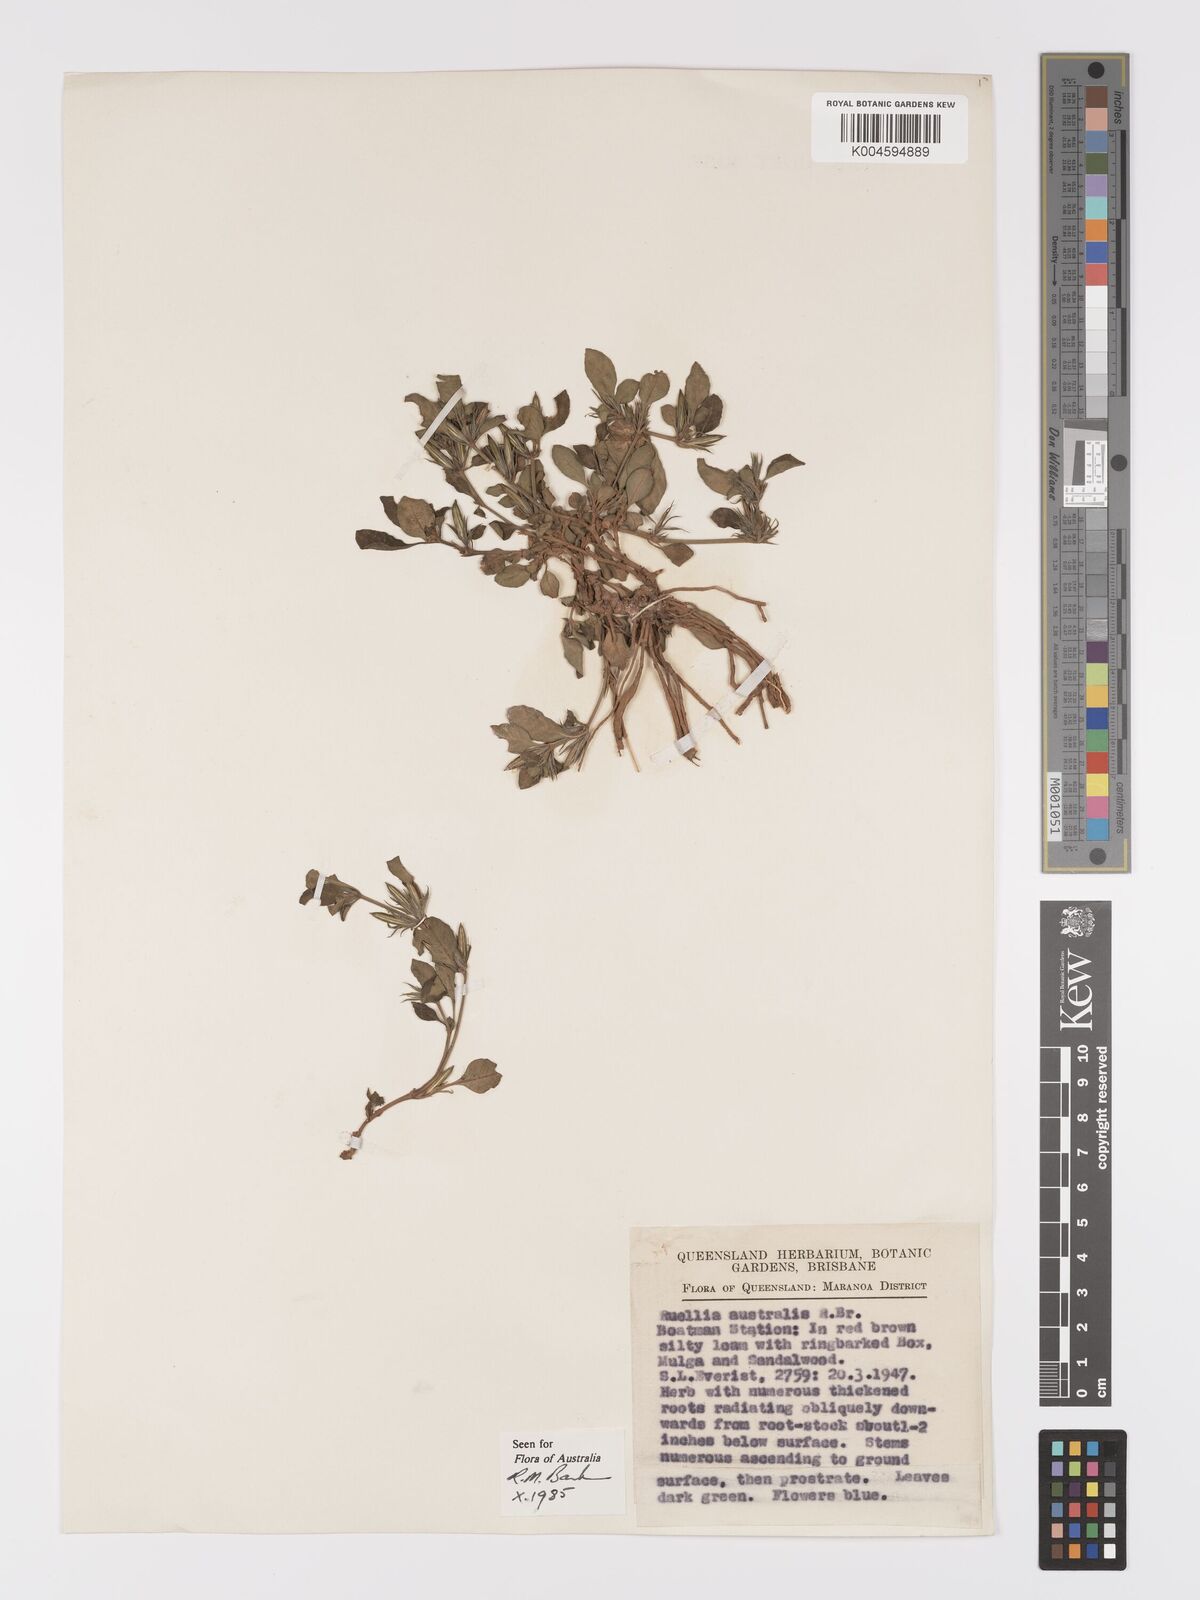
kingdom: Plantae
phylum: Tracheophyta
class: Magnoliopsida
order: Lamiales
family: Acanthaceae
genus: Brunoniella
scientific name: Brunoniella
